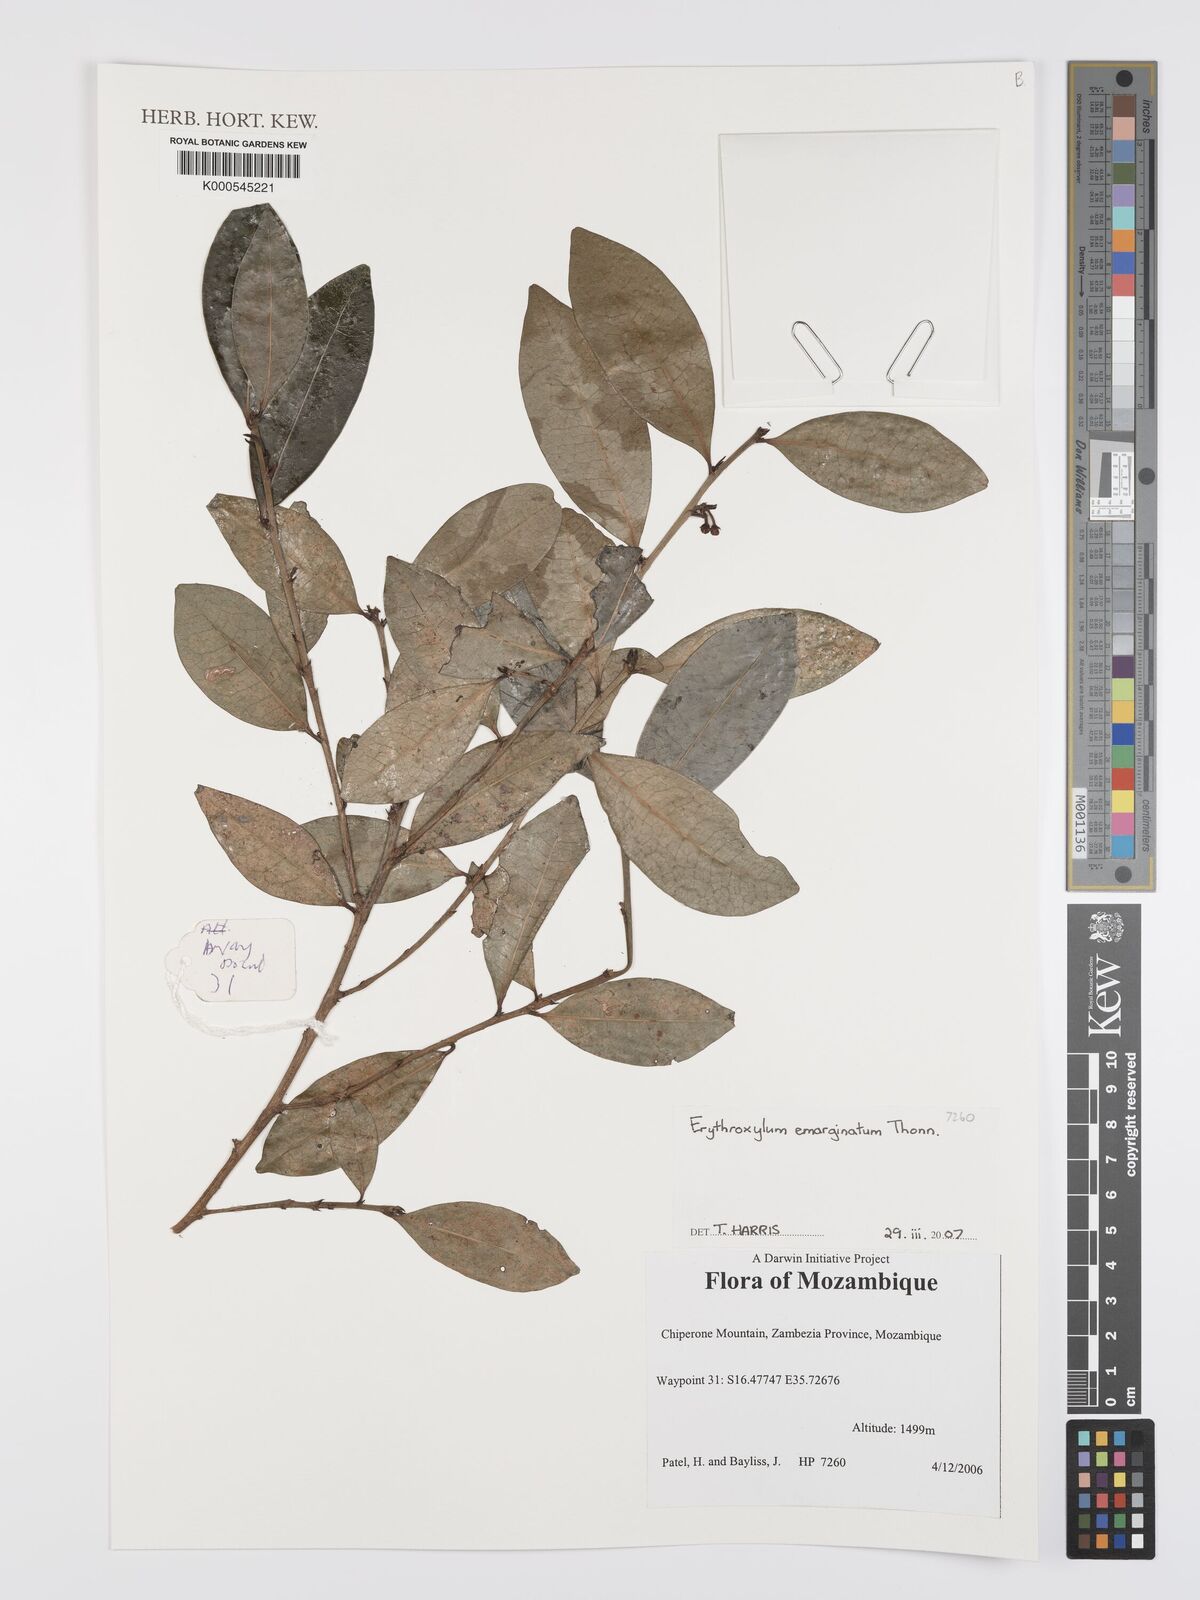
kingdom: Plantae
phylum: Tracheophyta
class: Magnoliopsida
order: Malpighiales
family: Erythroxylaceae
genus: Erythroxylum
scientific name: Erythroxylum emarginatum
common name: African coca-tree
